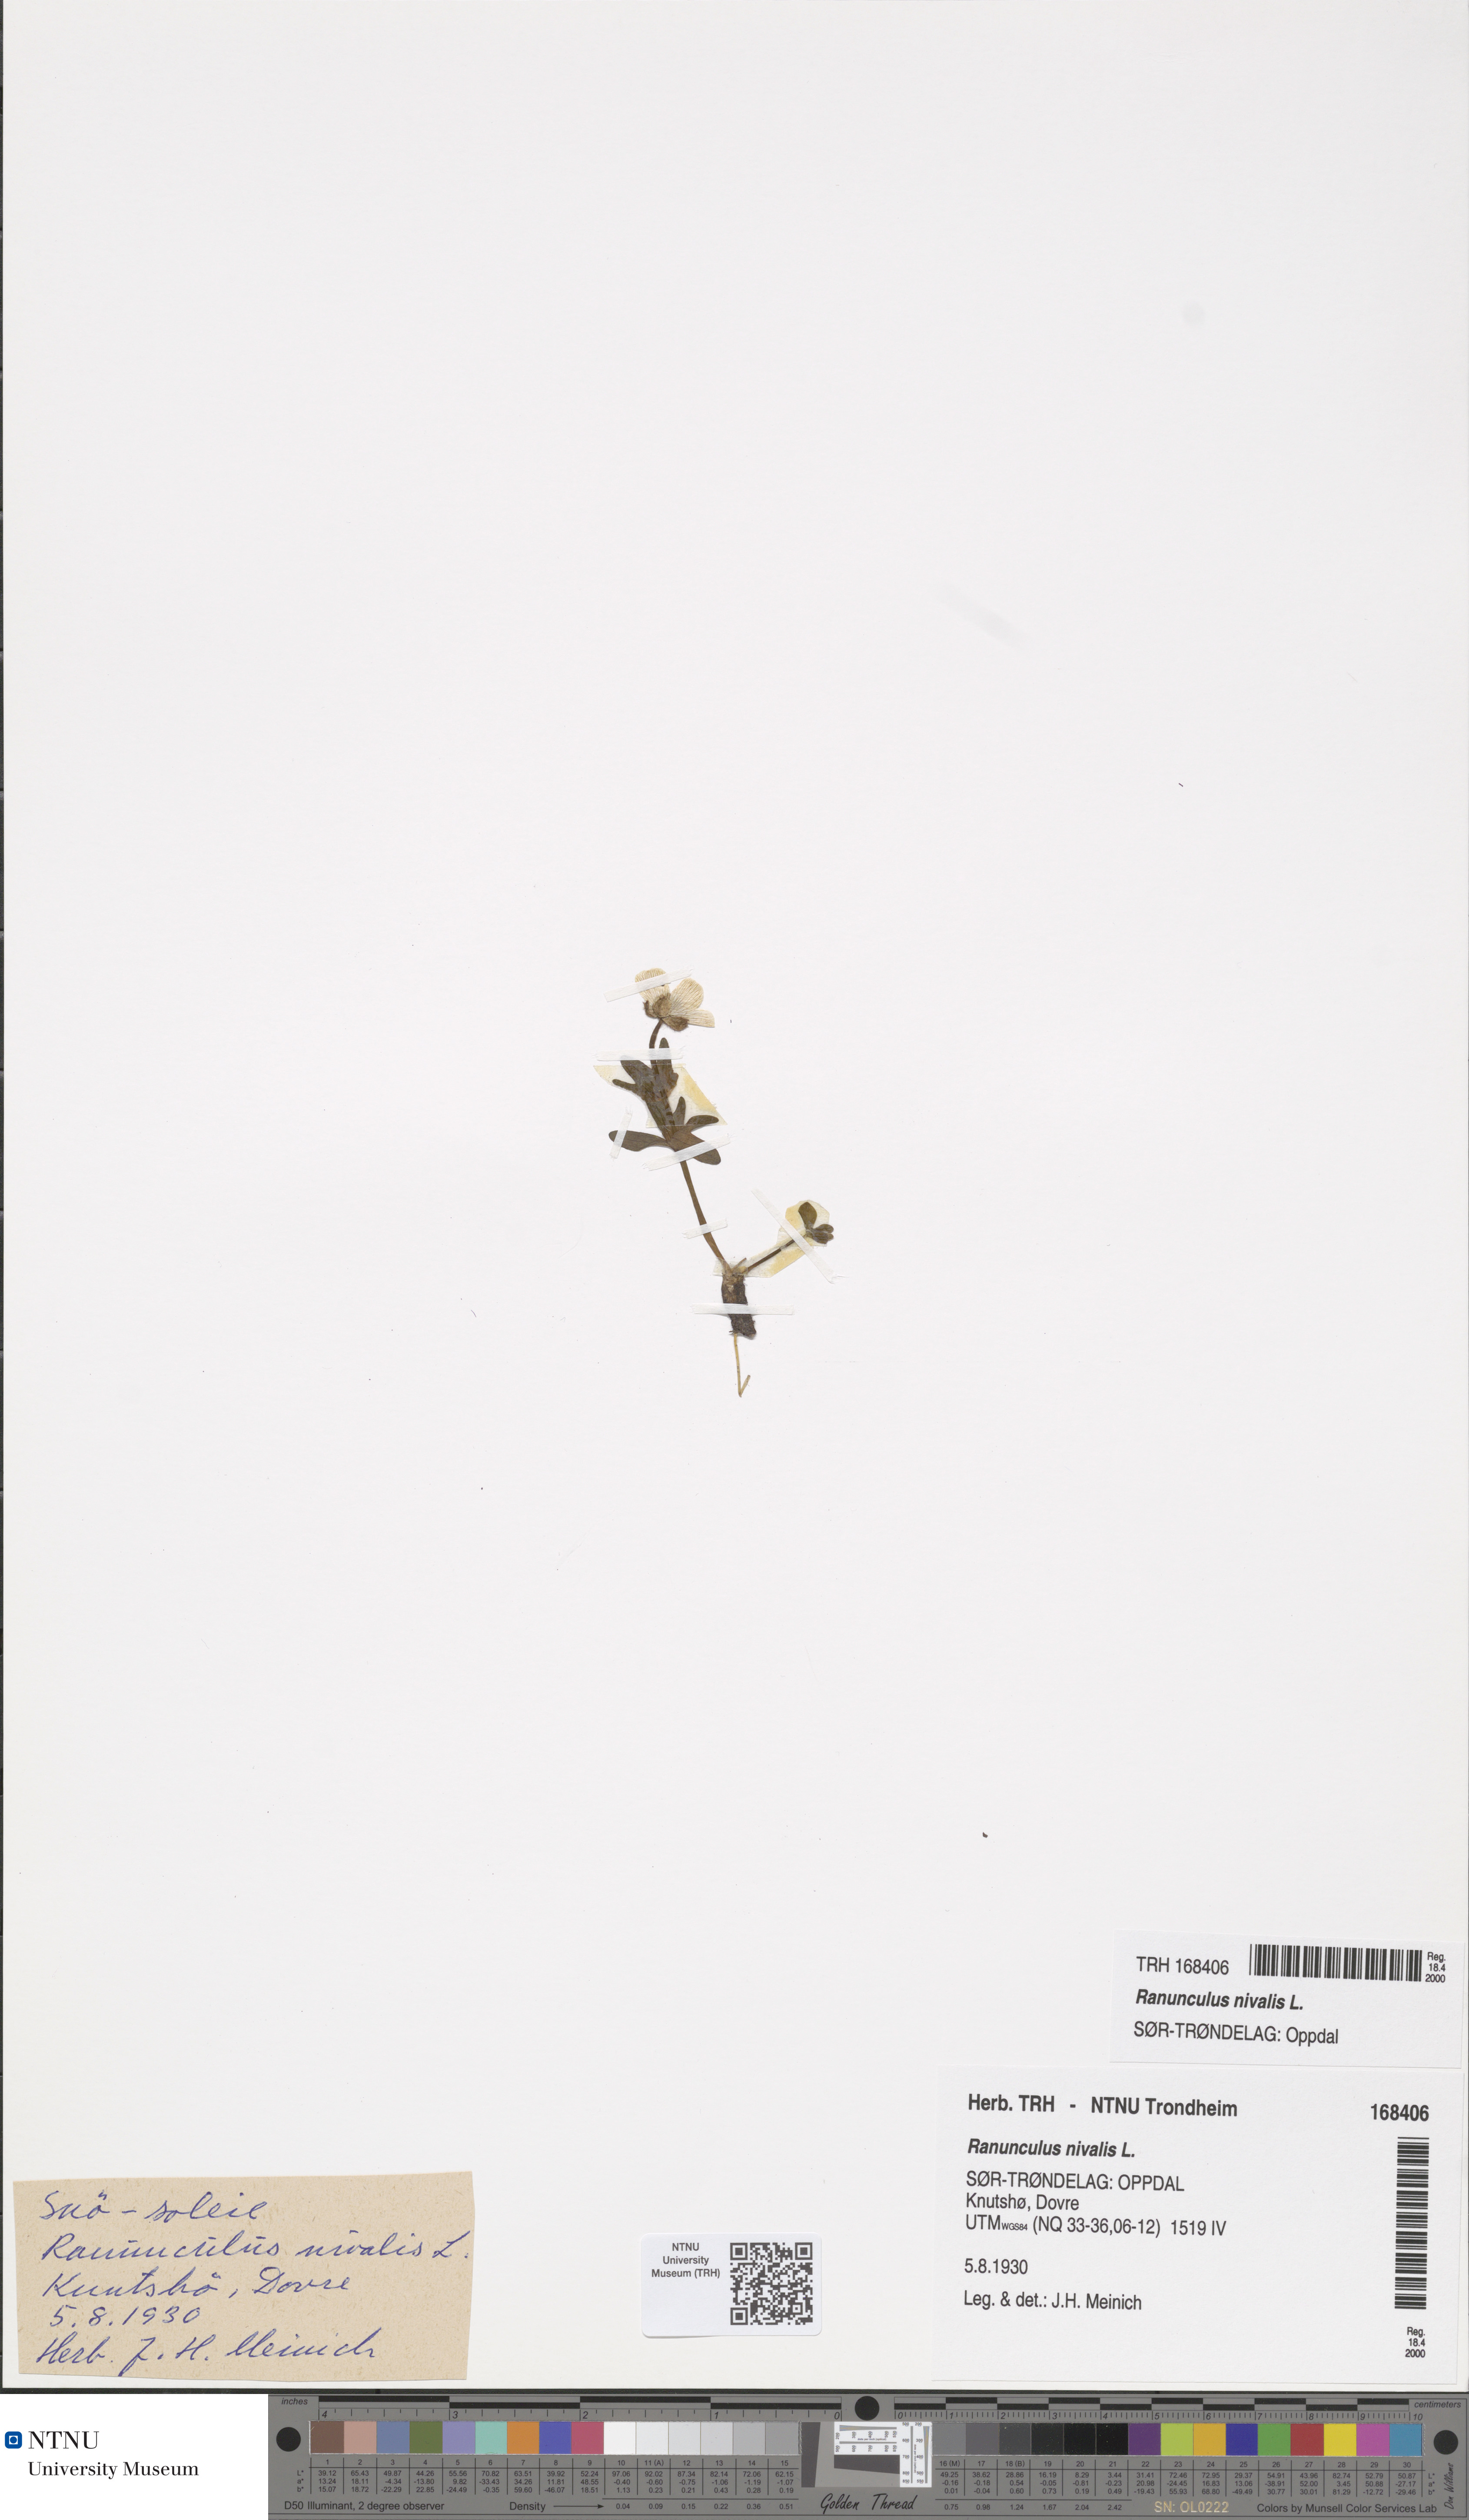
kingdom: Plantae
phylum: Tracheophyta
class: Magnoliopsida
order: Ranunculales
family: Ranunculaceae
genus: Ranunculus
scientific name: Ranunculus nivalis
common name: Snow buttercup
